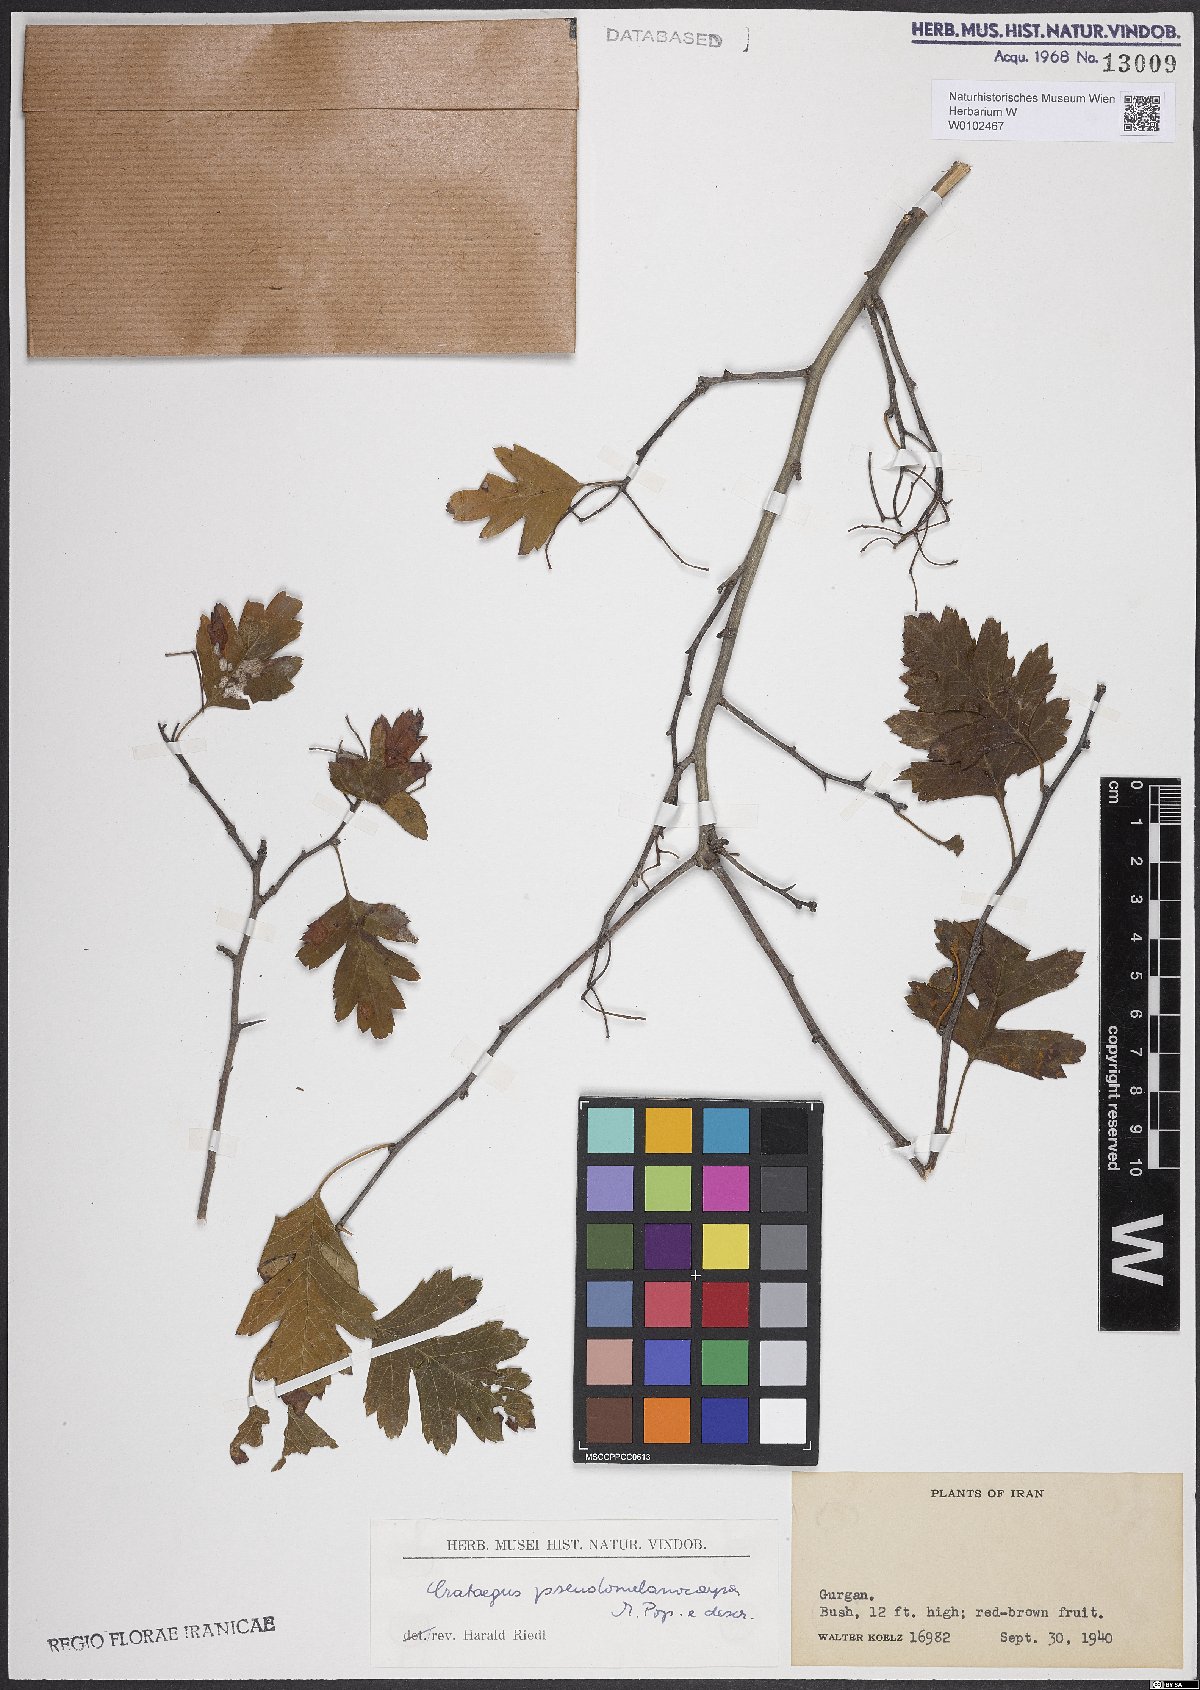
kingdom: Plantae
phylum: Tracheophyta
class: Magnoliopsida
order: Rosales
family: Rosaceae
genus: Crataegus
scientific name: Crataegus pentagyna
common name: Small-flowered black hawthorn
